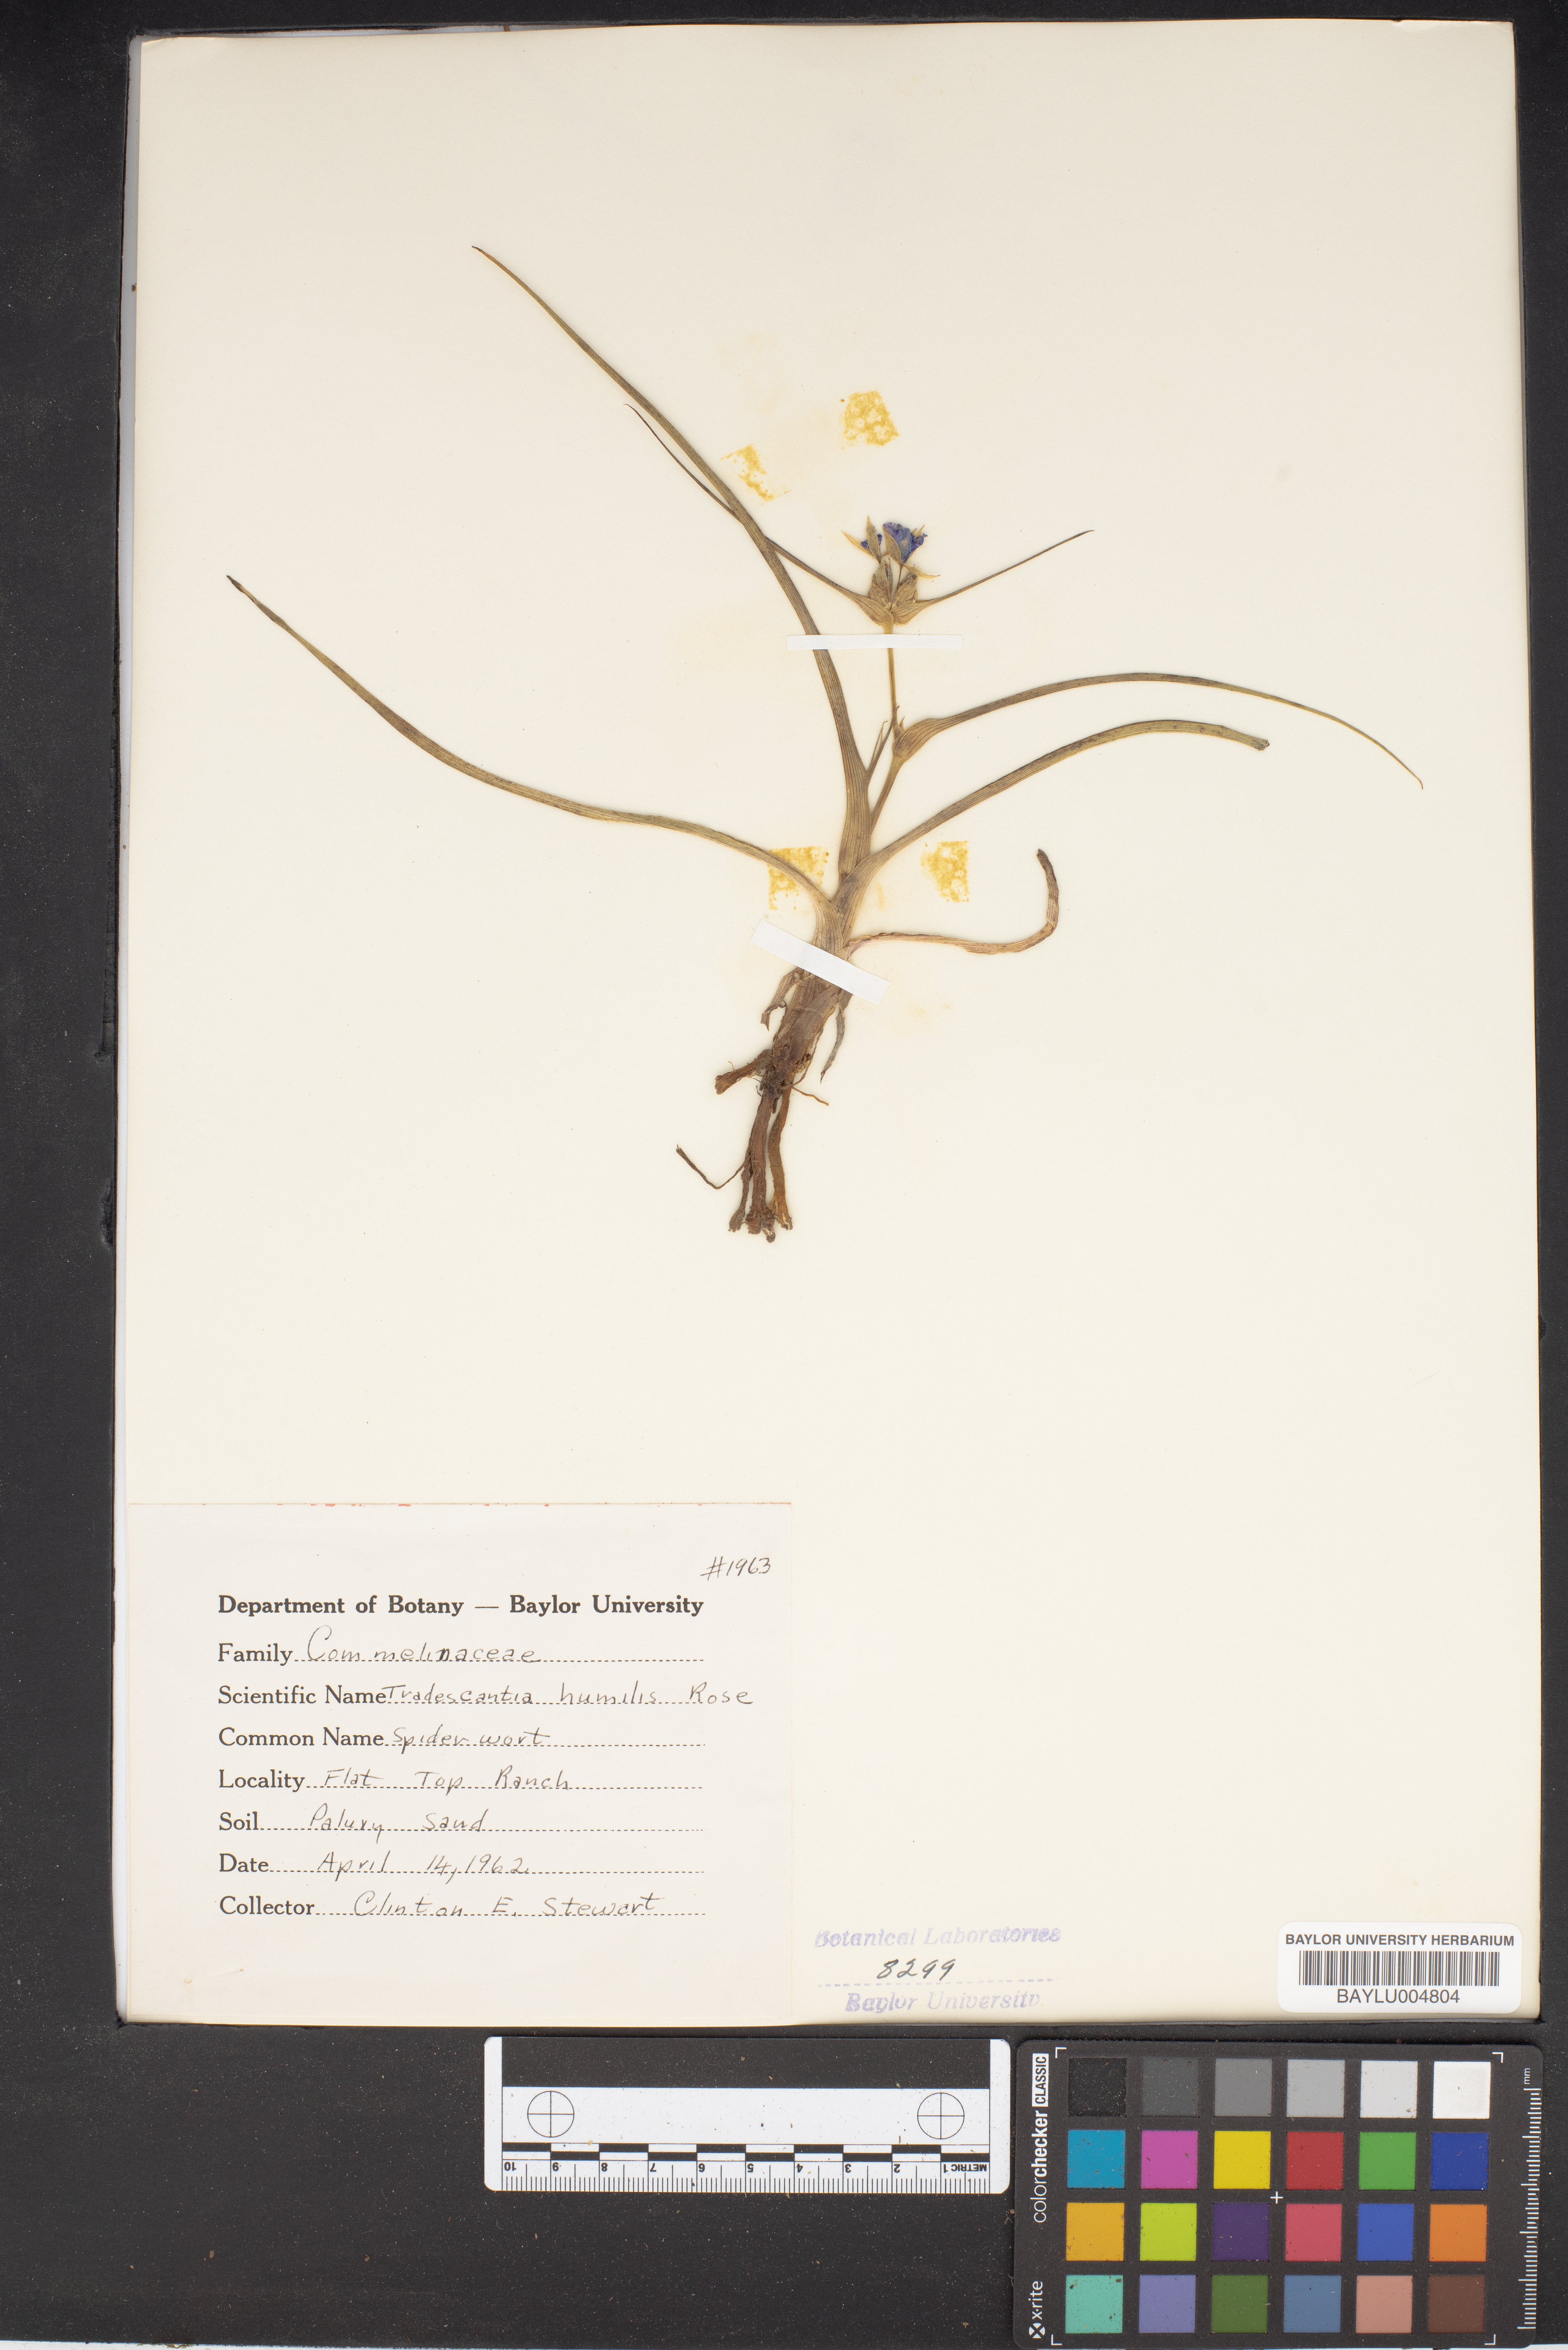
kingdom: Plantae
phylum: Tracheophyta
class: Liliopsida
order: Commelinales
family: Commelinaceae
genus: Tradescantia
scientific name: Tradescantia humilis
